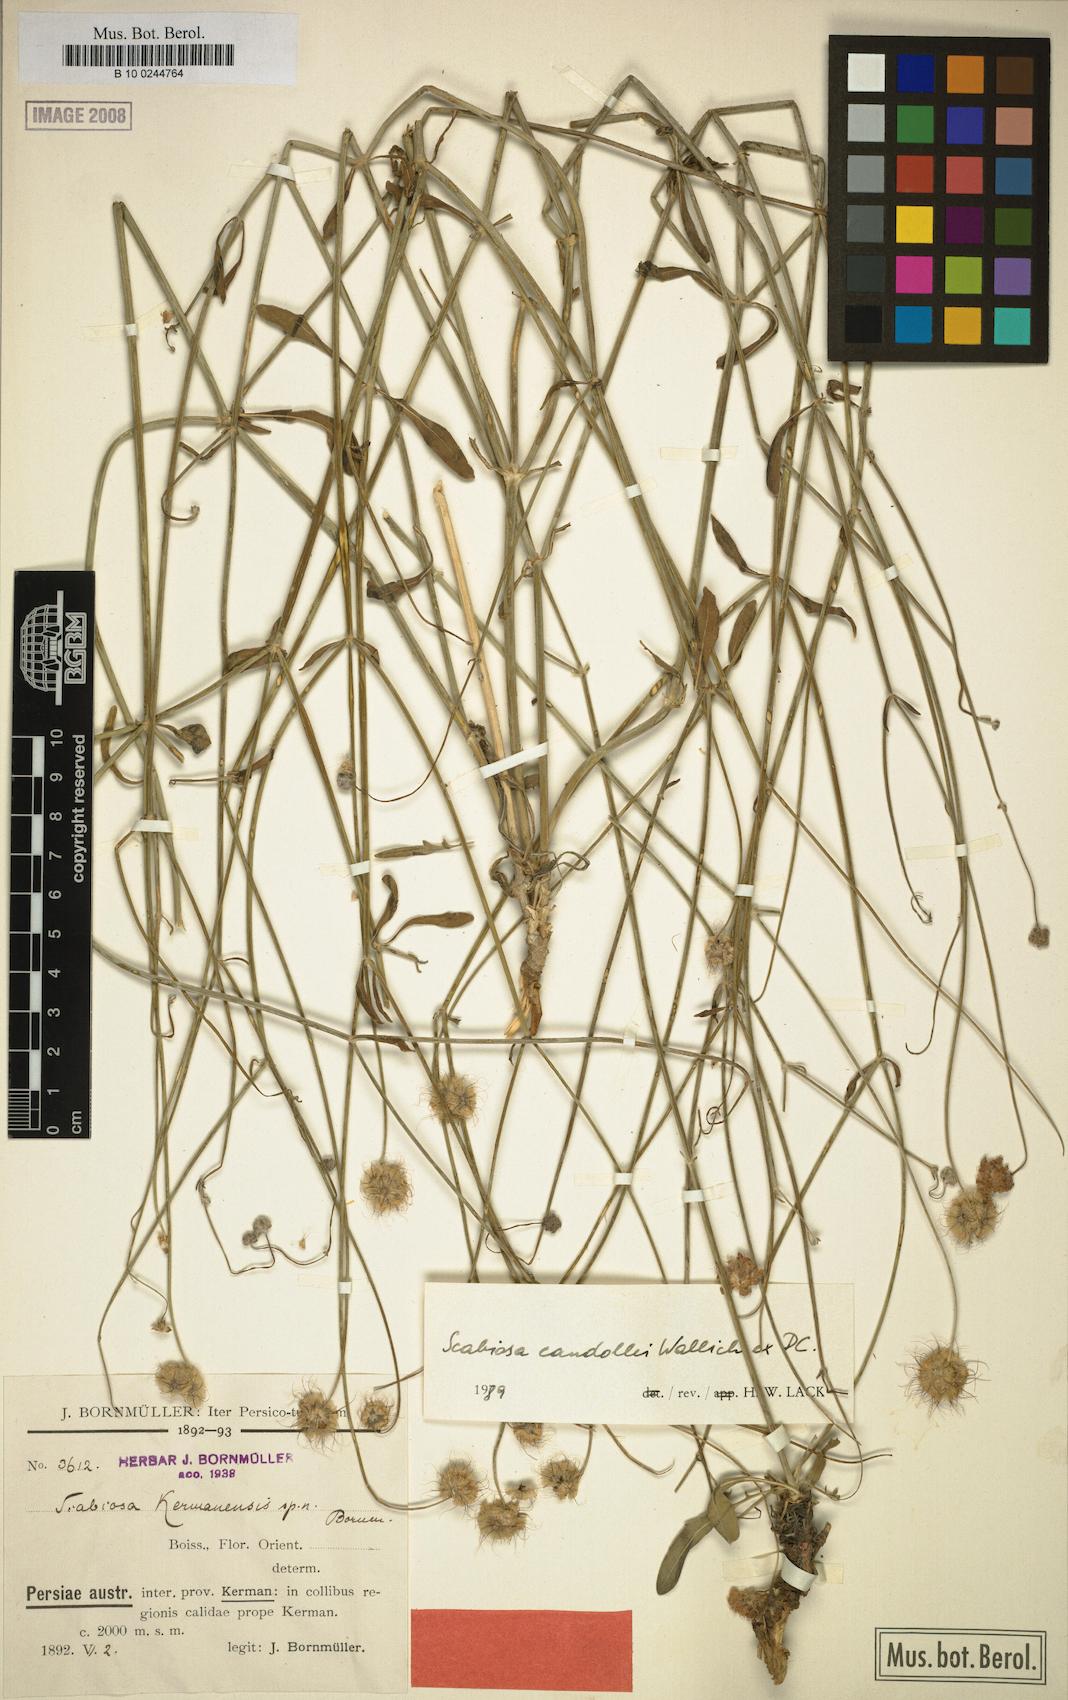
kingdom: Plantae
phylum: Tracheophyta
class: Magnoliopsida
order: Dipsacales
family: Caprifoliaceae
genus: Lomelosia
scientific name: Lomelosia candollei
